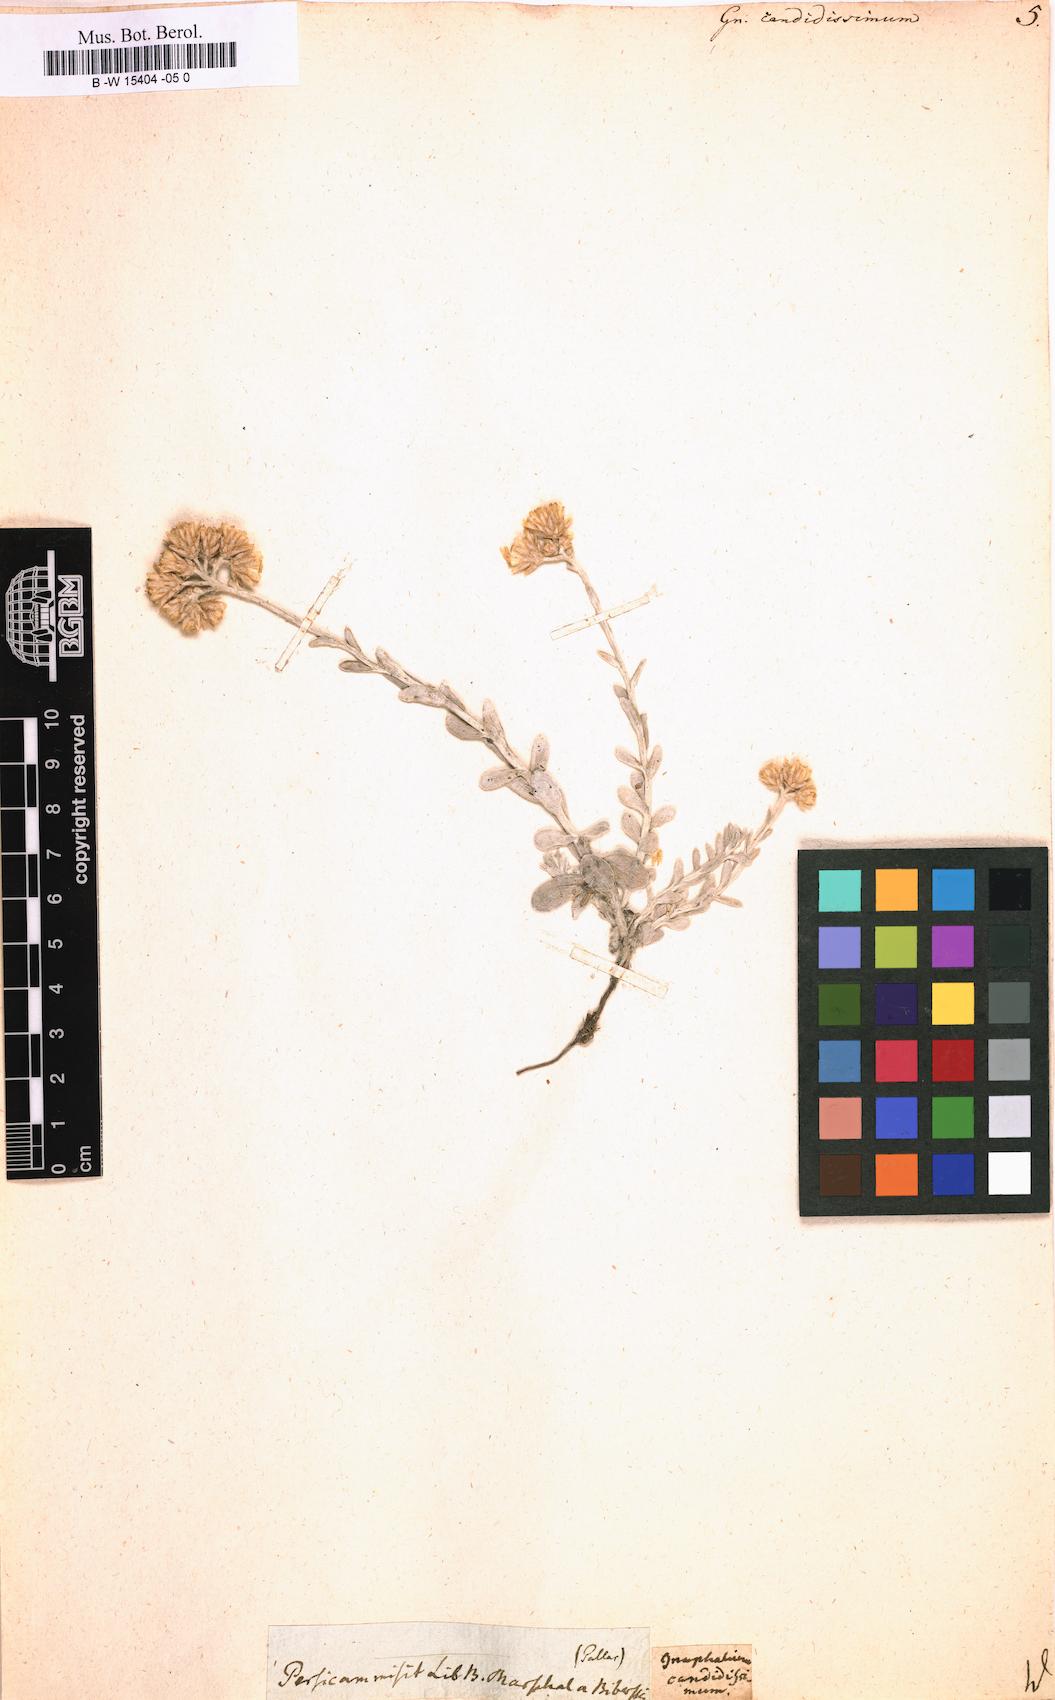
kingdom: Plantae
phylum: Tracheophyta
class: Magnoliopsida
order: Asterales
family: Asteraceae
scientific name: Asteraceae
